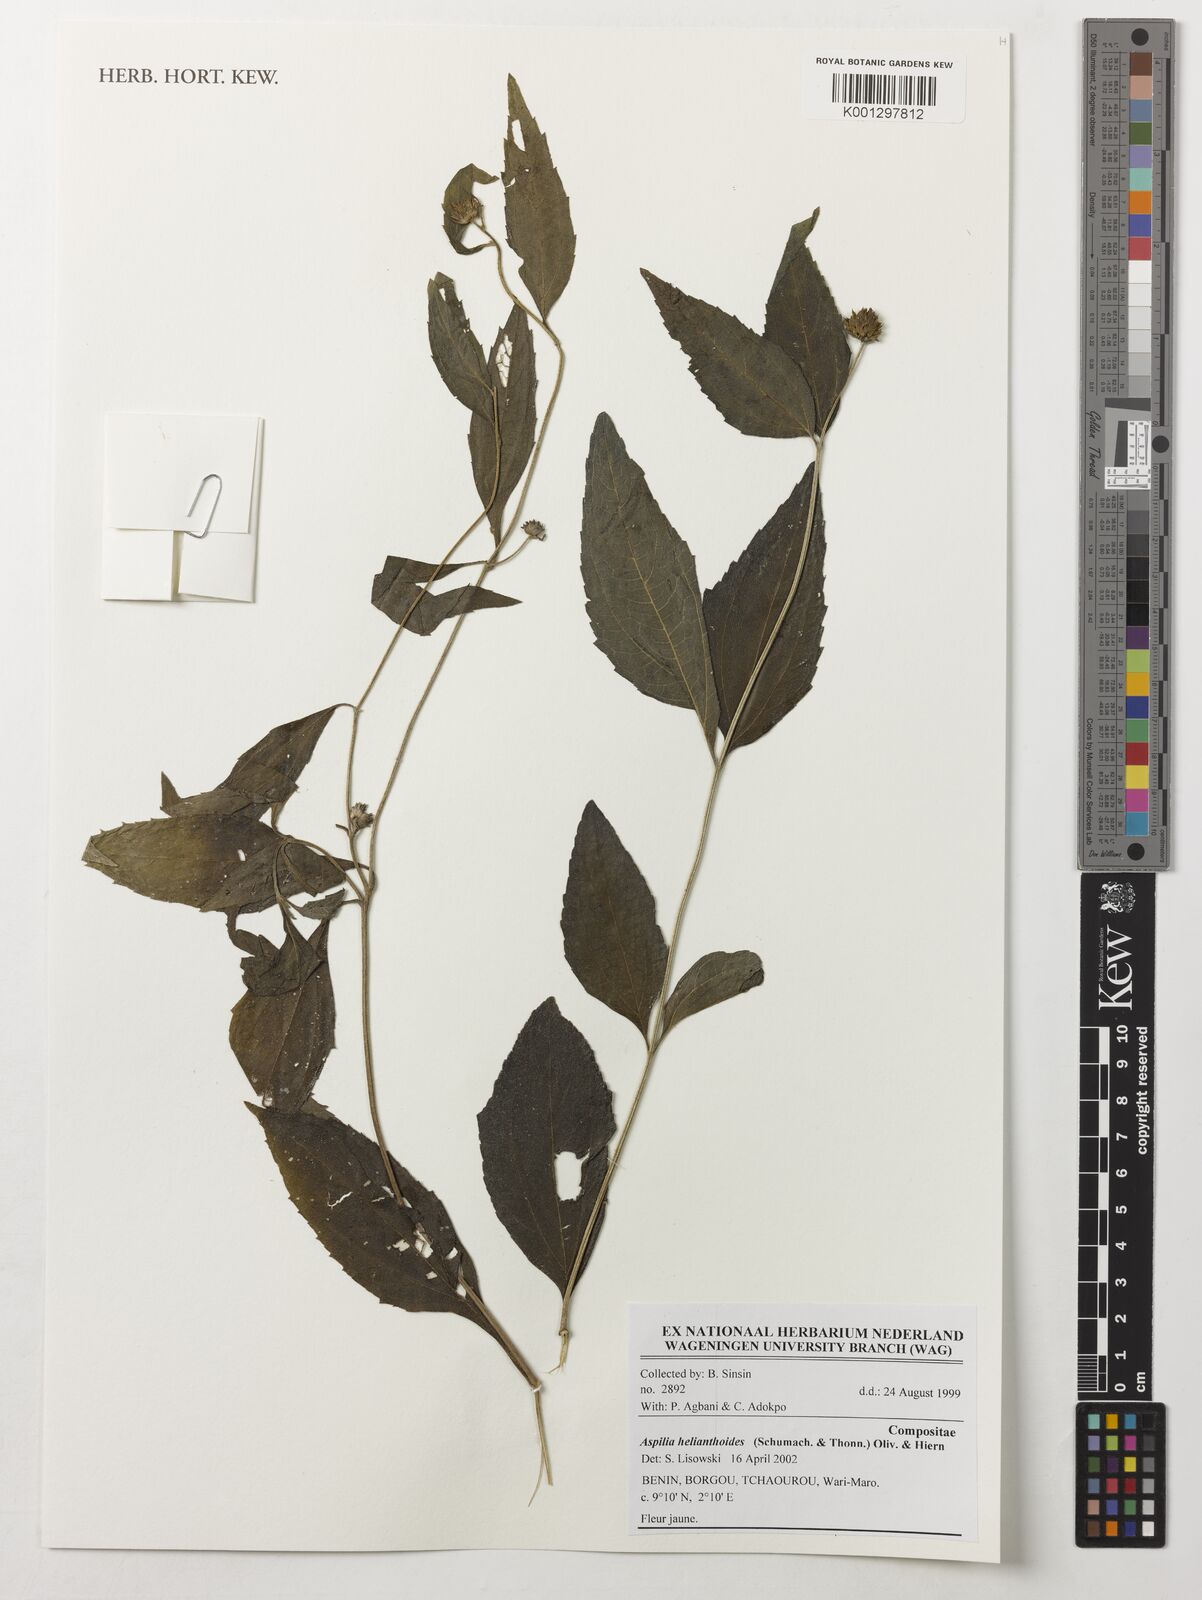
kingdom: Plantae
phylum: Tracheophyta
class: Magnoliopsida
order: Asterales
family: Asteraceae
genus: Aspilia
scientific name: Aspilia helianthoides
